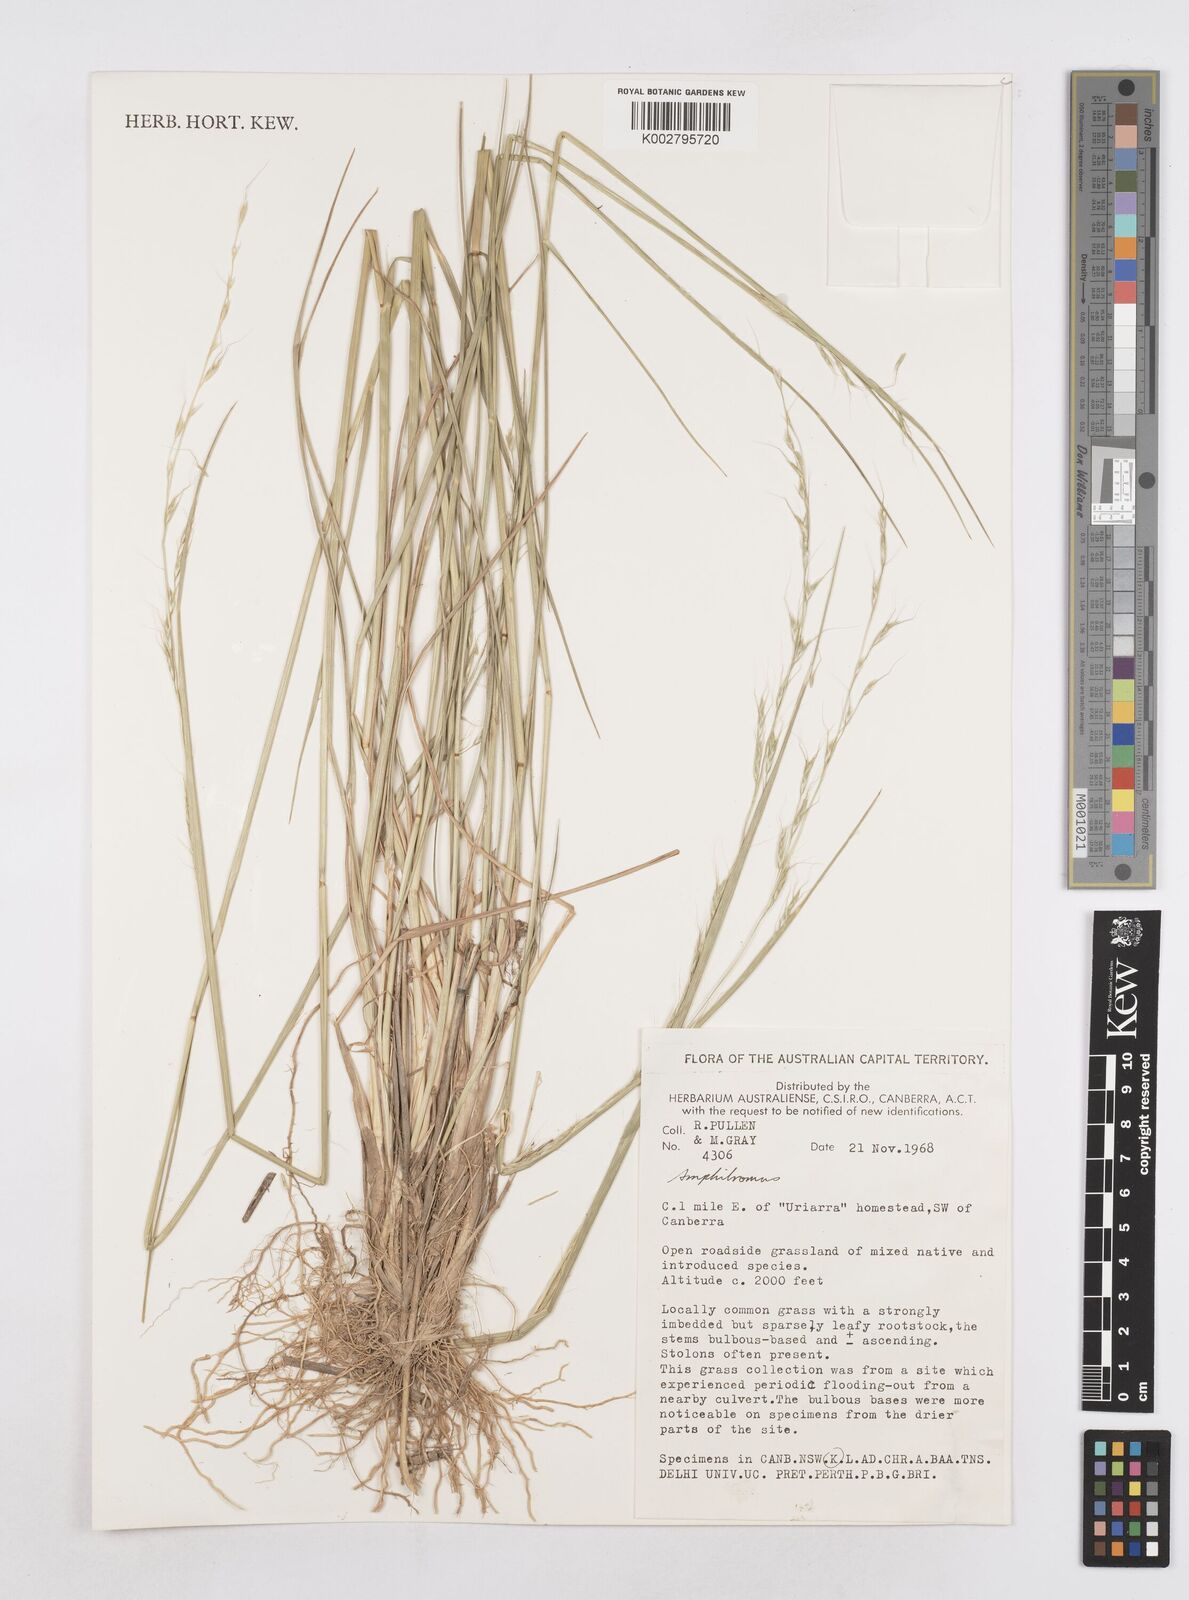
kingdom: Plantae
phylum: Tracheophyta
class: Liliopsida
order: Poales
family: Poaceae
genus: Helictotrichon
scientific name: Helictotrichon
